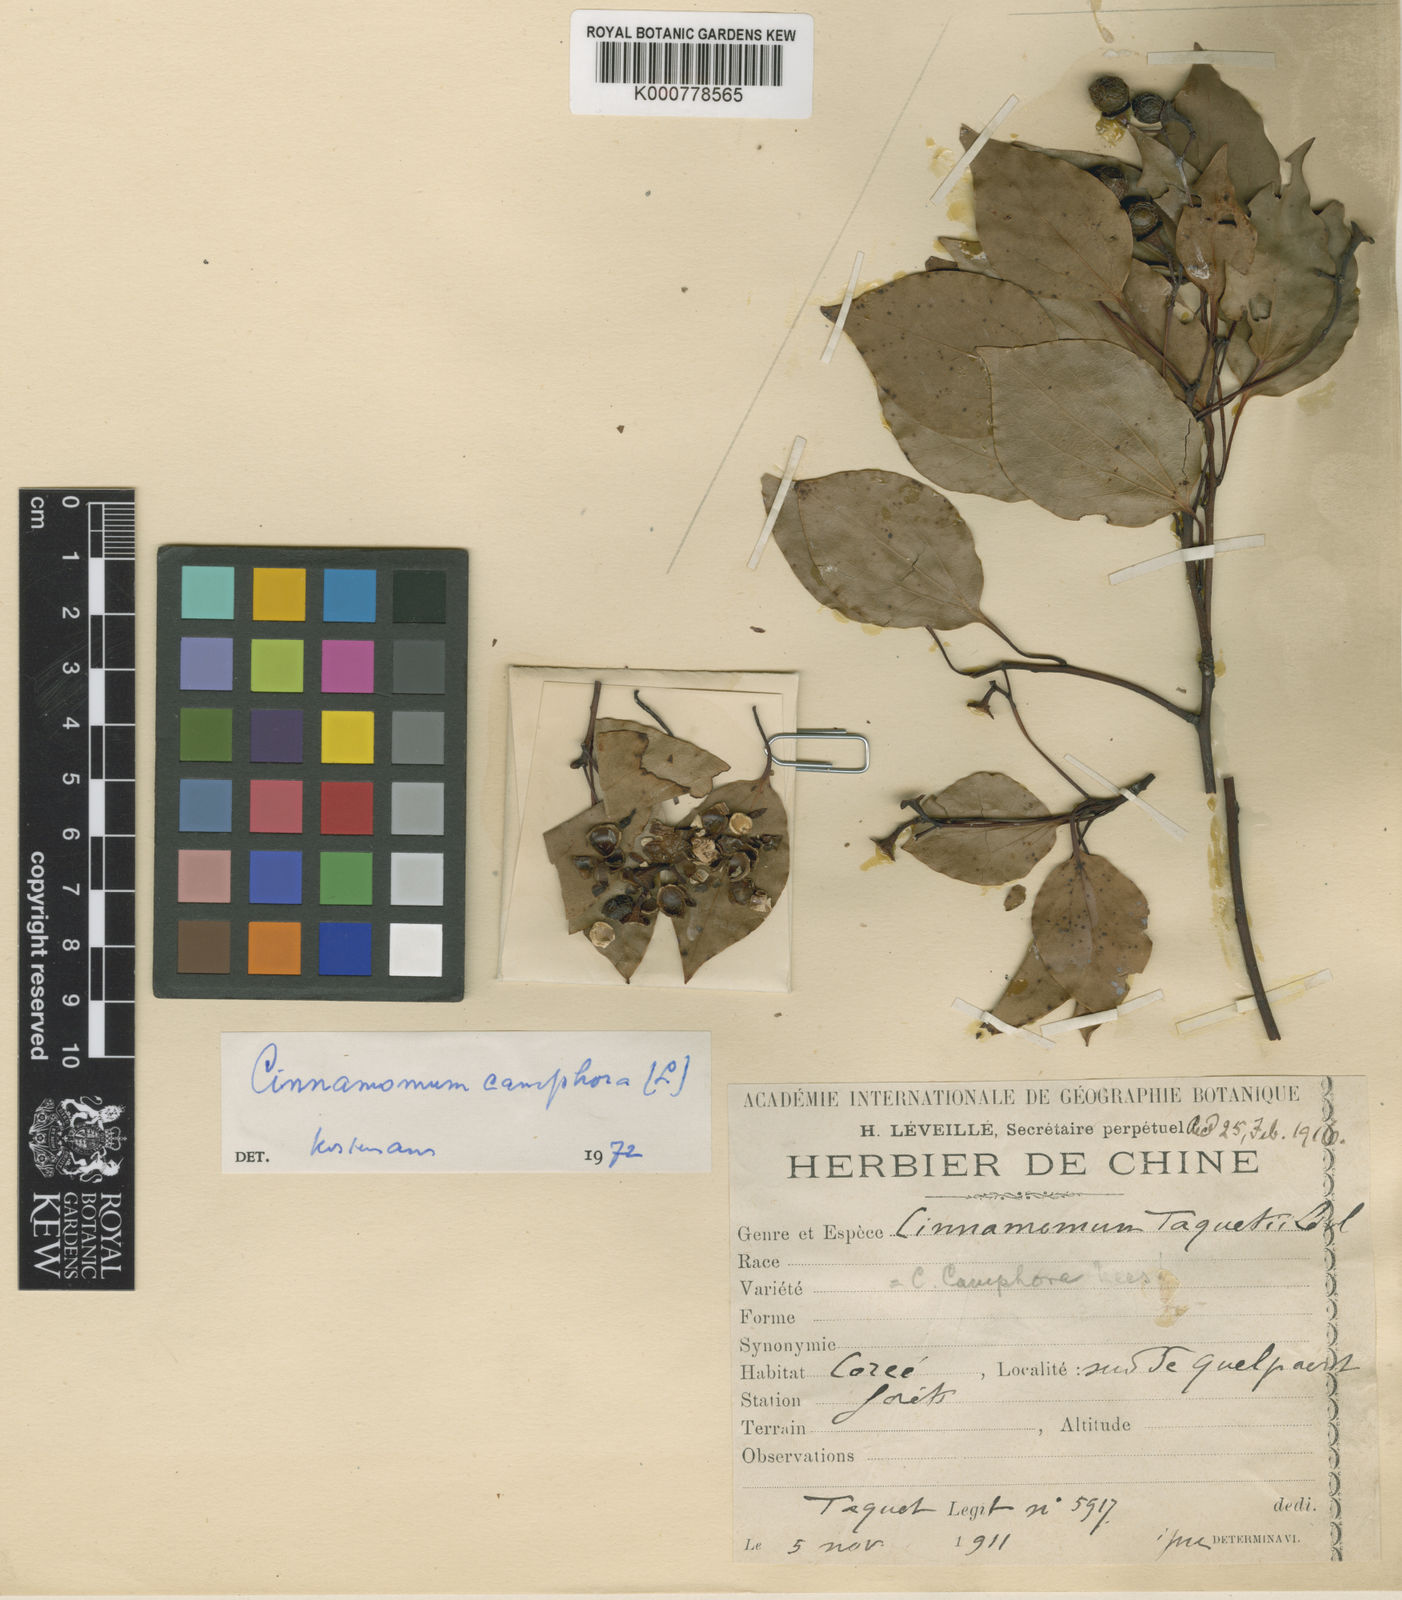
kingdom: Plantae
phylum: Tracheophyta
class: Magnoliopsida
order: Laurales
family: Lauraceae
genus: Cinnamomum
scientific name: Cinnamomum camphora
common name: Camphortree
